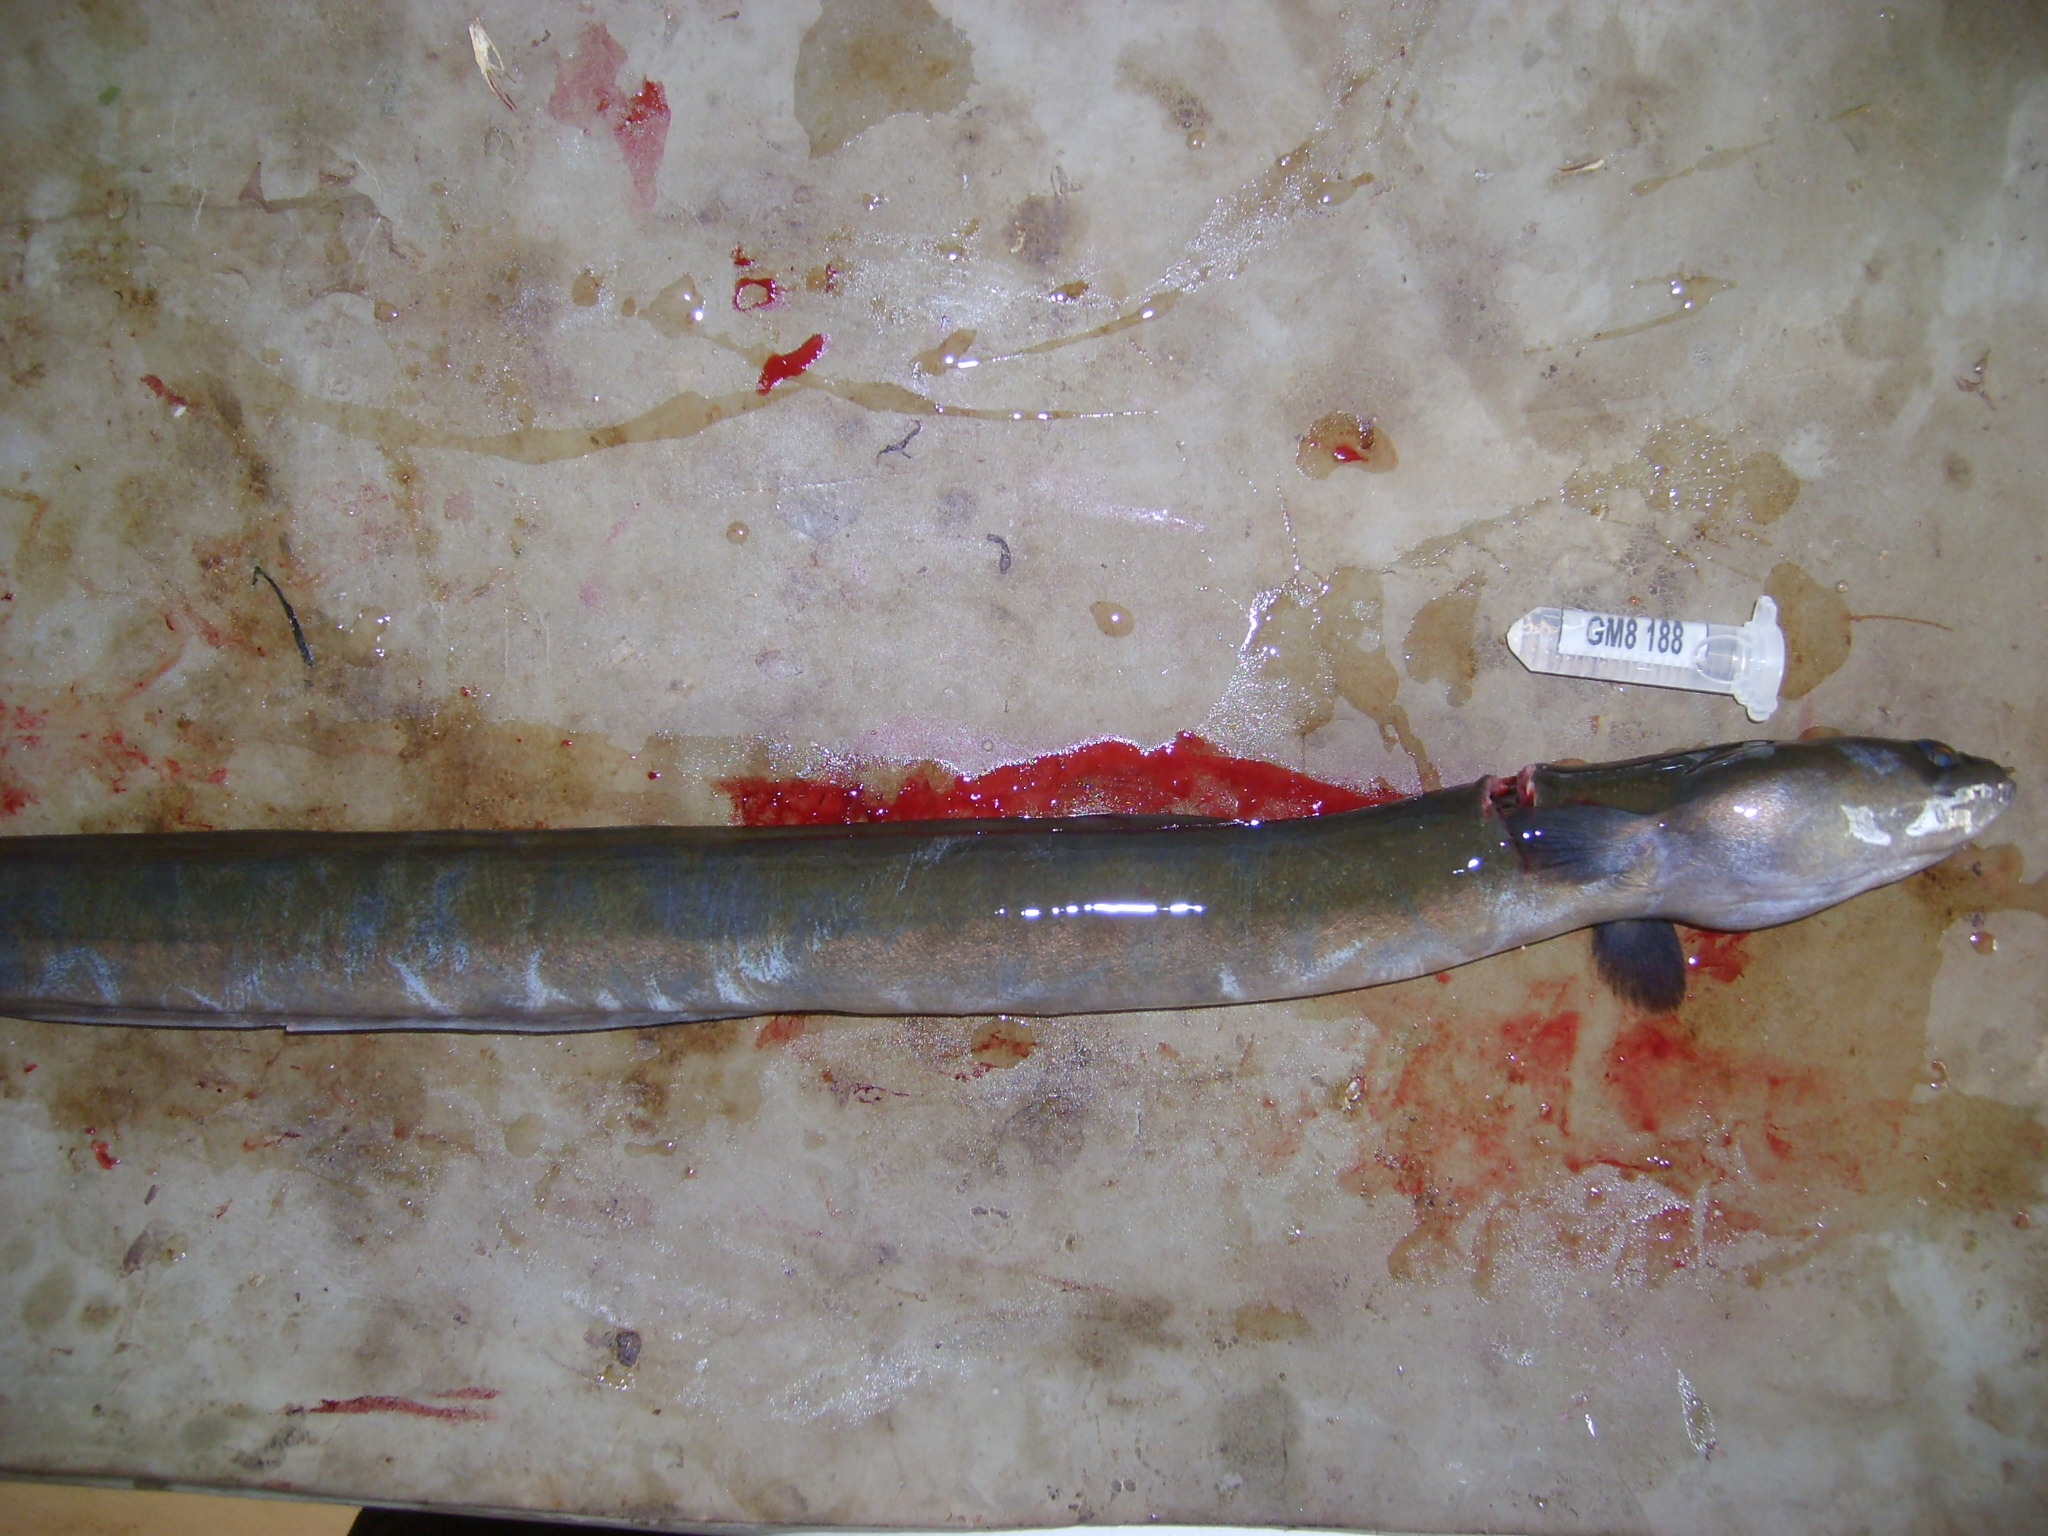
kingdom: Animalia
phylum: Chordata
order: Anguilliformes
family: Anguillidae
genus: Anguilla
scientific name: Anguilla mossambica
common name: African longfin eel
